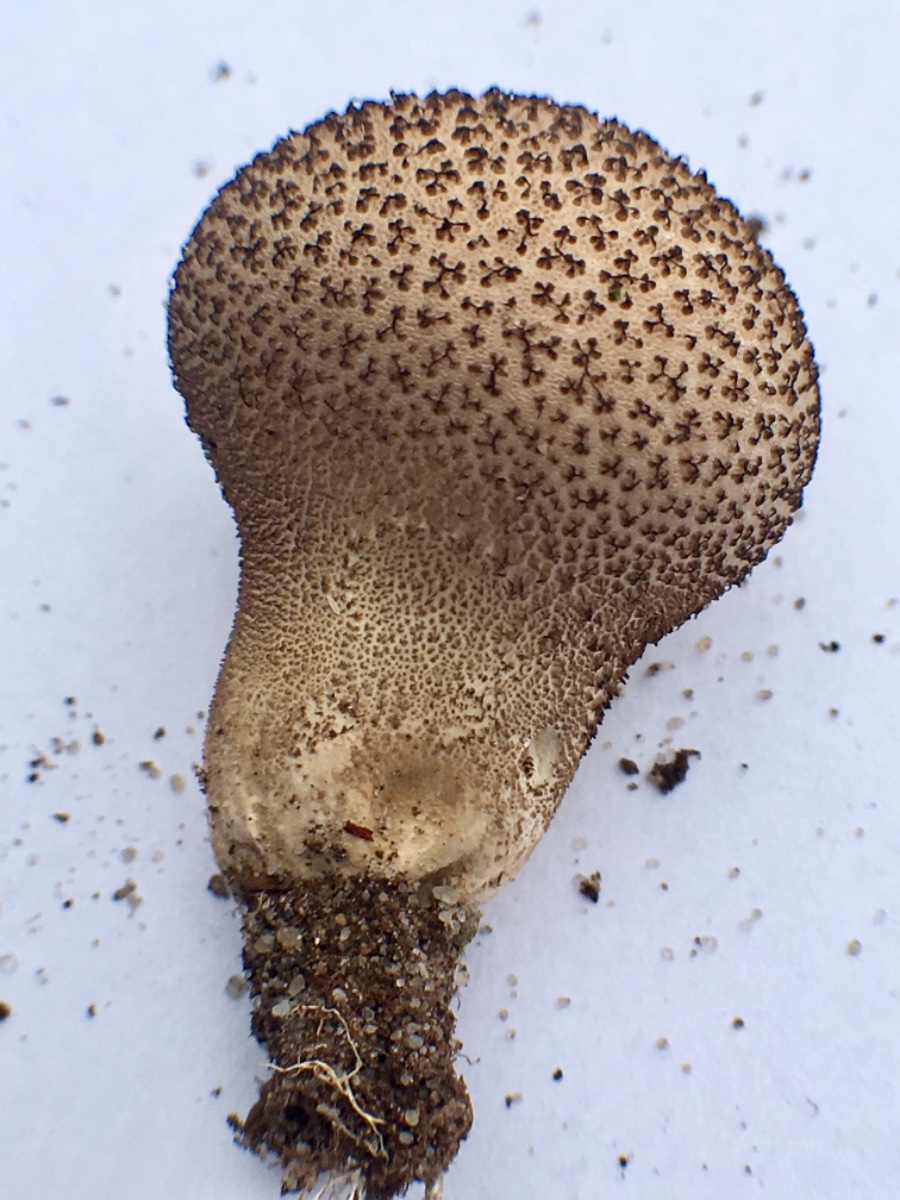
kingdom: Fungi
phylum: Basidiomycota
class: Agaricomycetes
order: Agaricales
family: Agaricaceae
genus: Lycoperdon
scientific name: Lycoperdon
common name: støvbold
